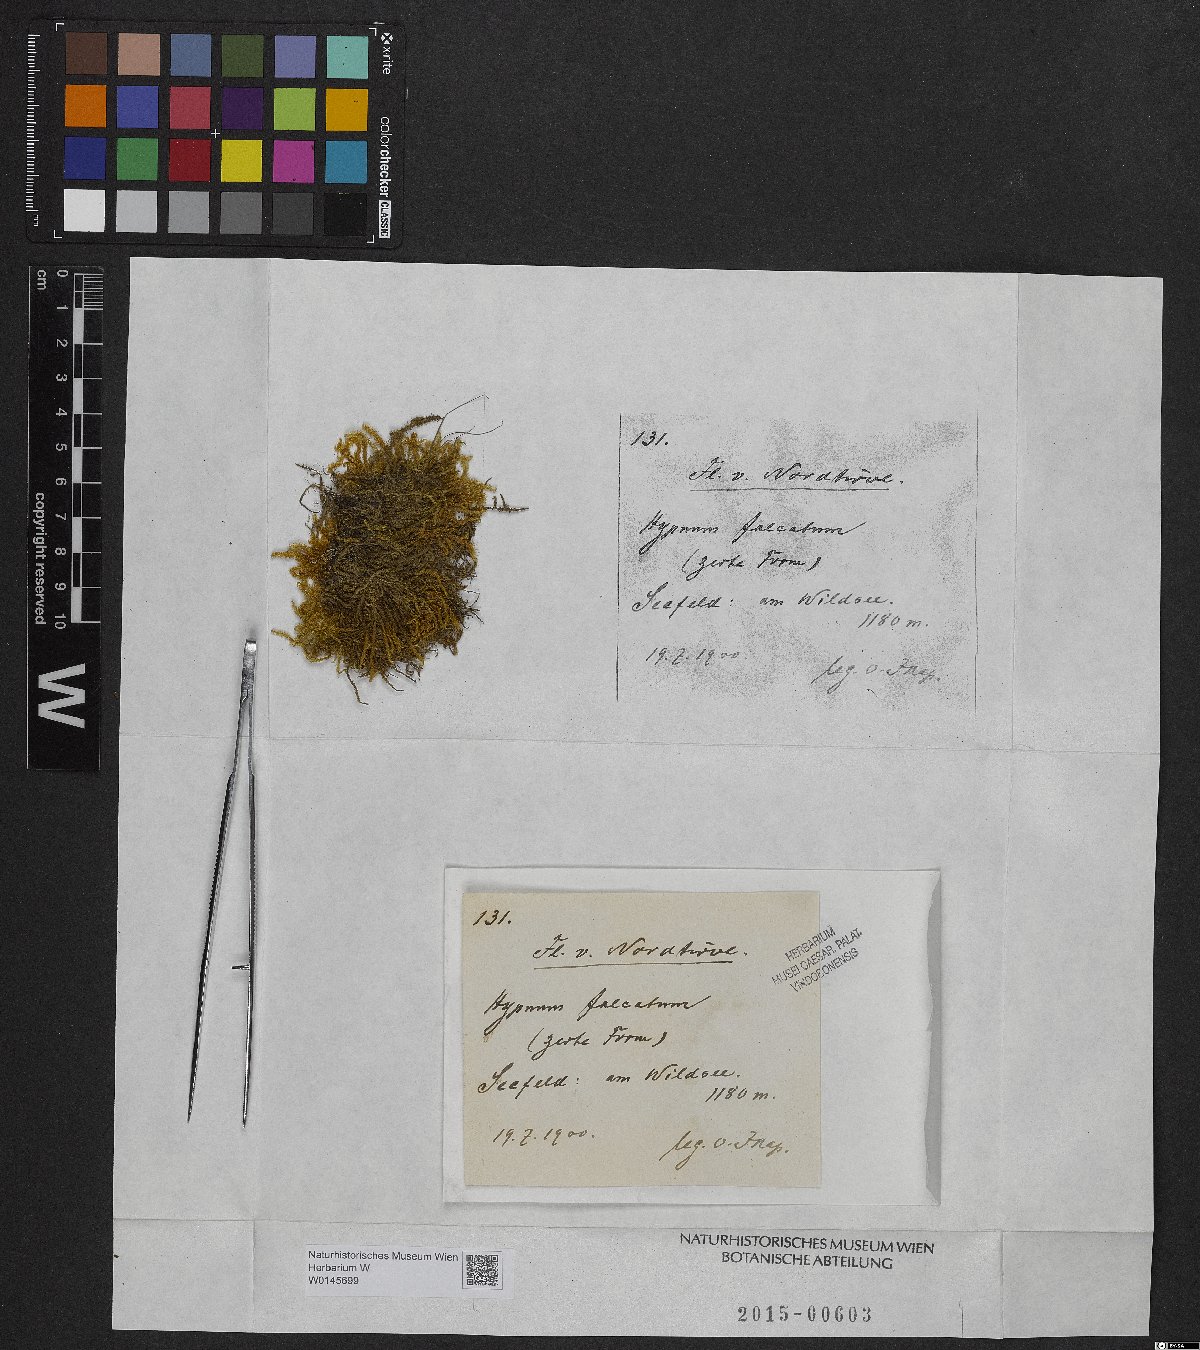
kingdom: Plantae
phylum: Bryophyta
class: Bryopsida
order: Hypnales
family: Amblystegiaceae
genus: Palustriella
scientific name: Palustriella falcata
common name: Curled hook-moss
